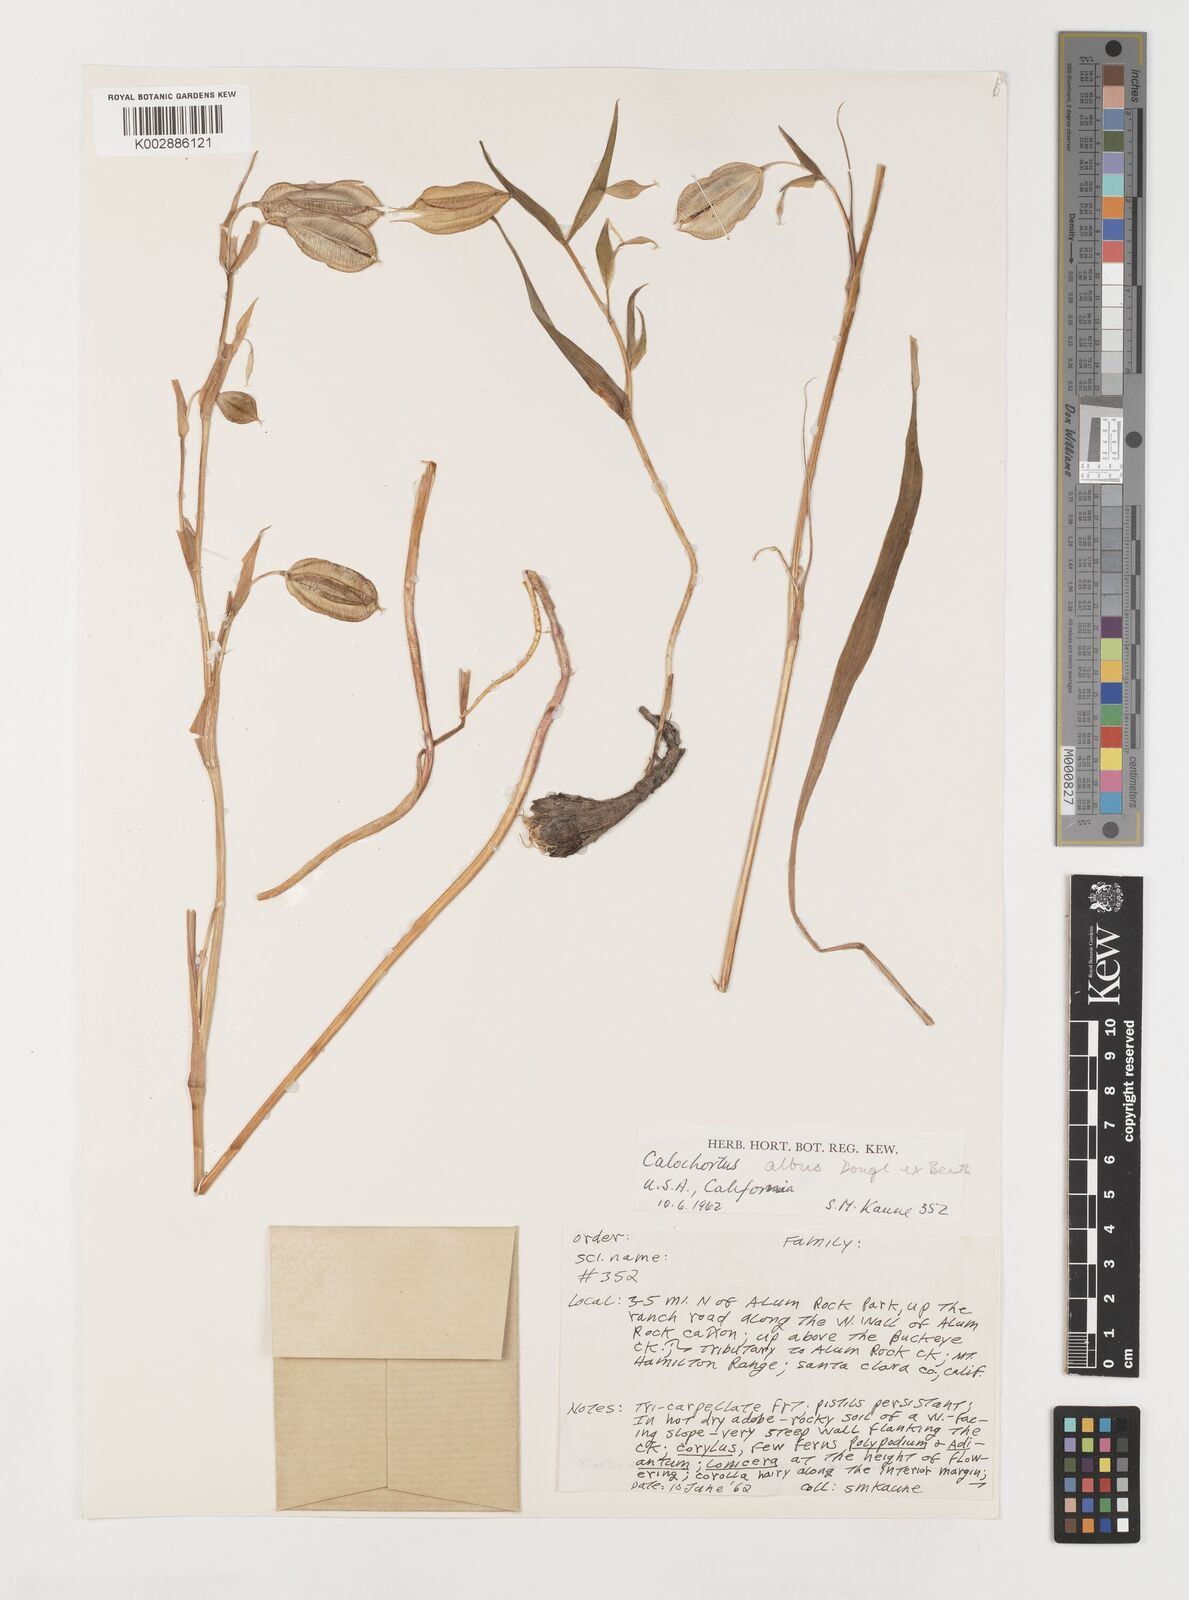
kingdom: Plantae
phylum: Tracheophyta
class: Liliopsida
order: Liliales
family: Liliaceae
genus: Calochortus
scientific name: Calochortus albus
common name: Fairy-lantern
